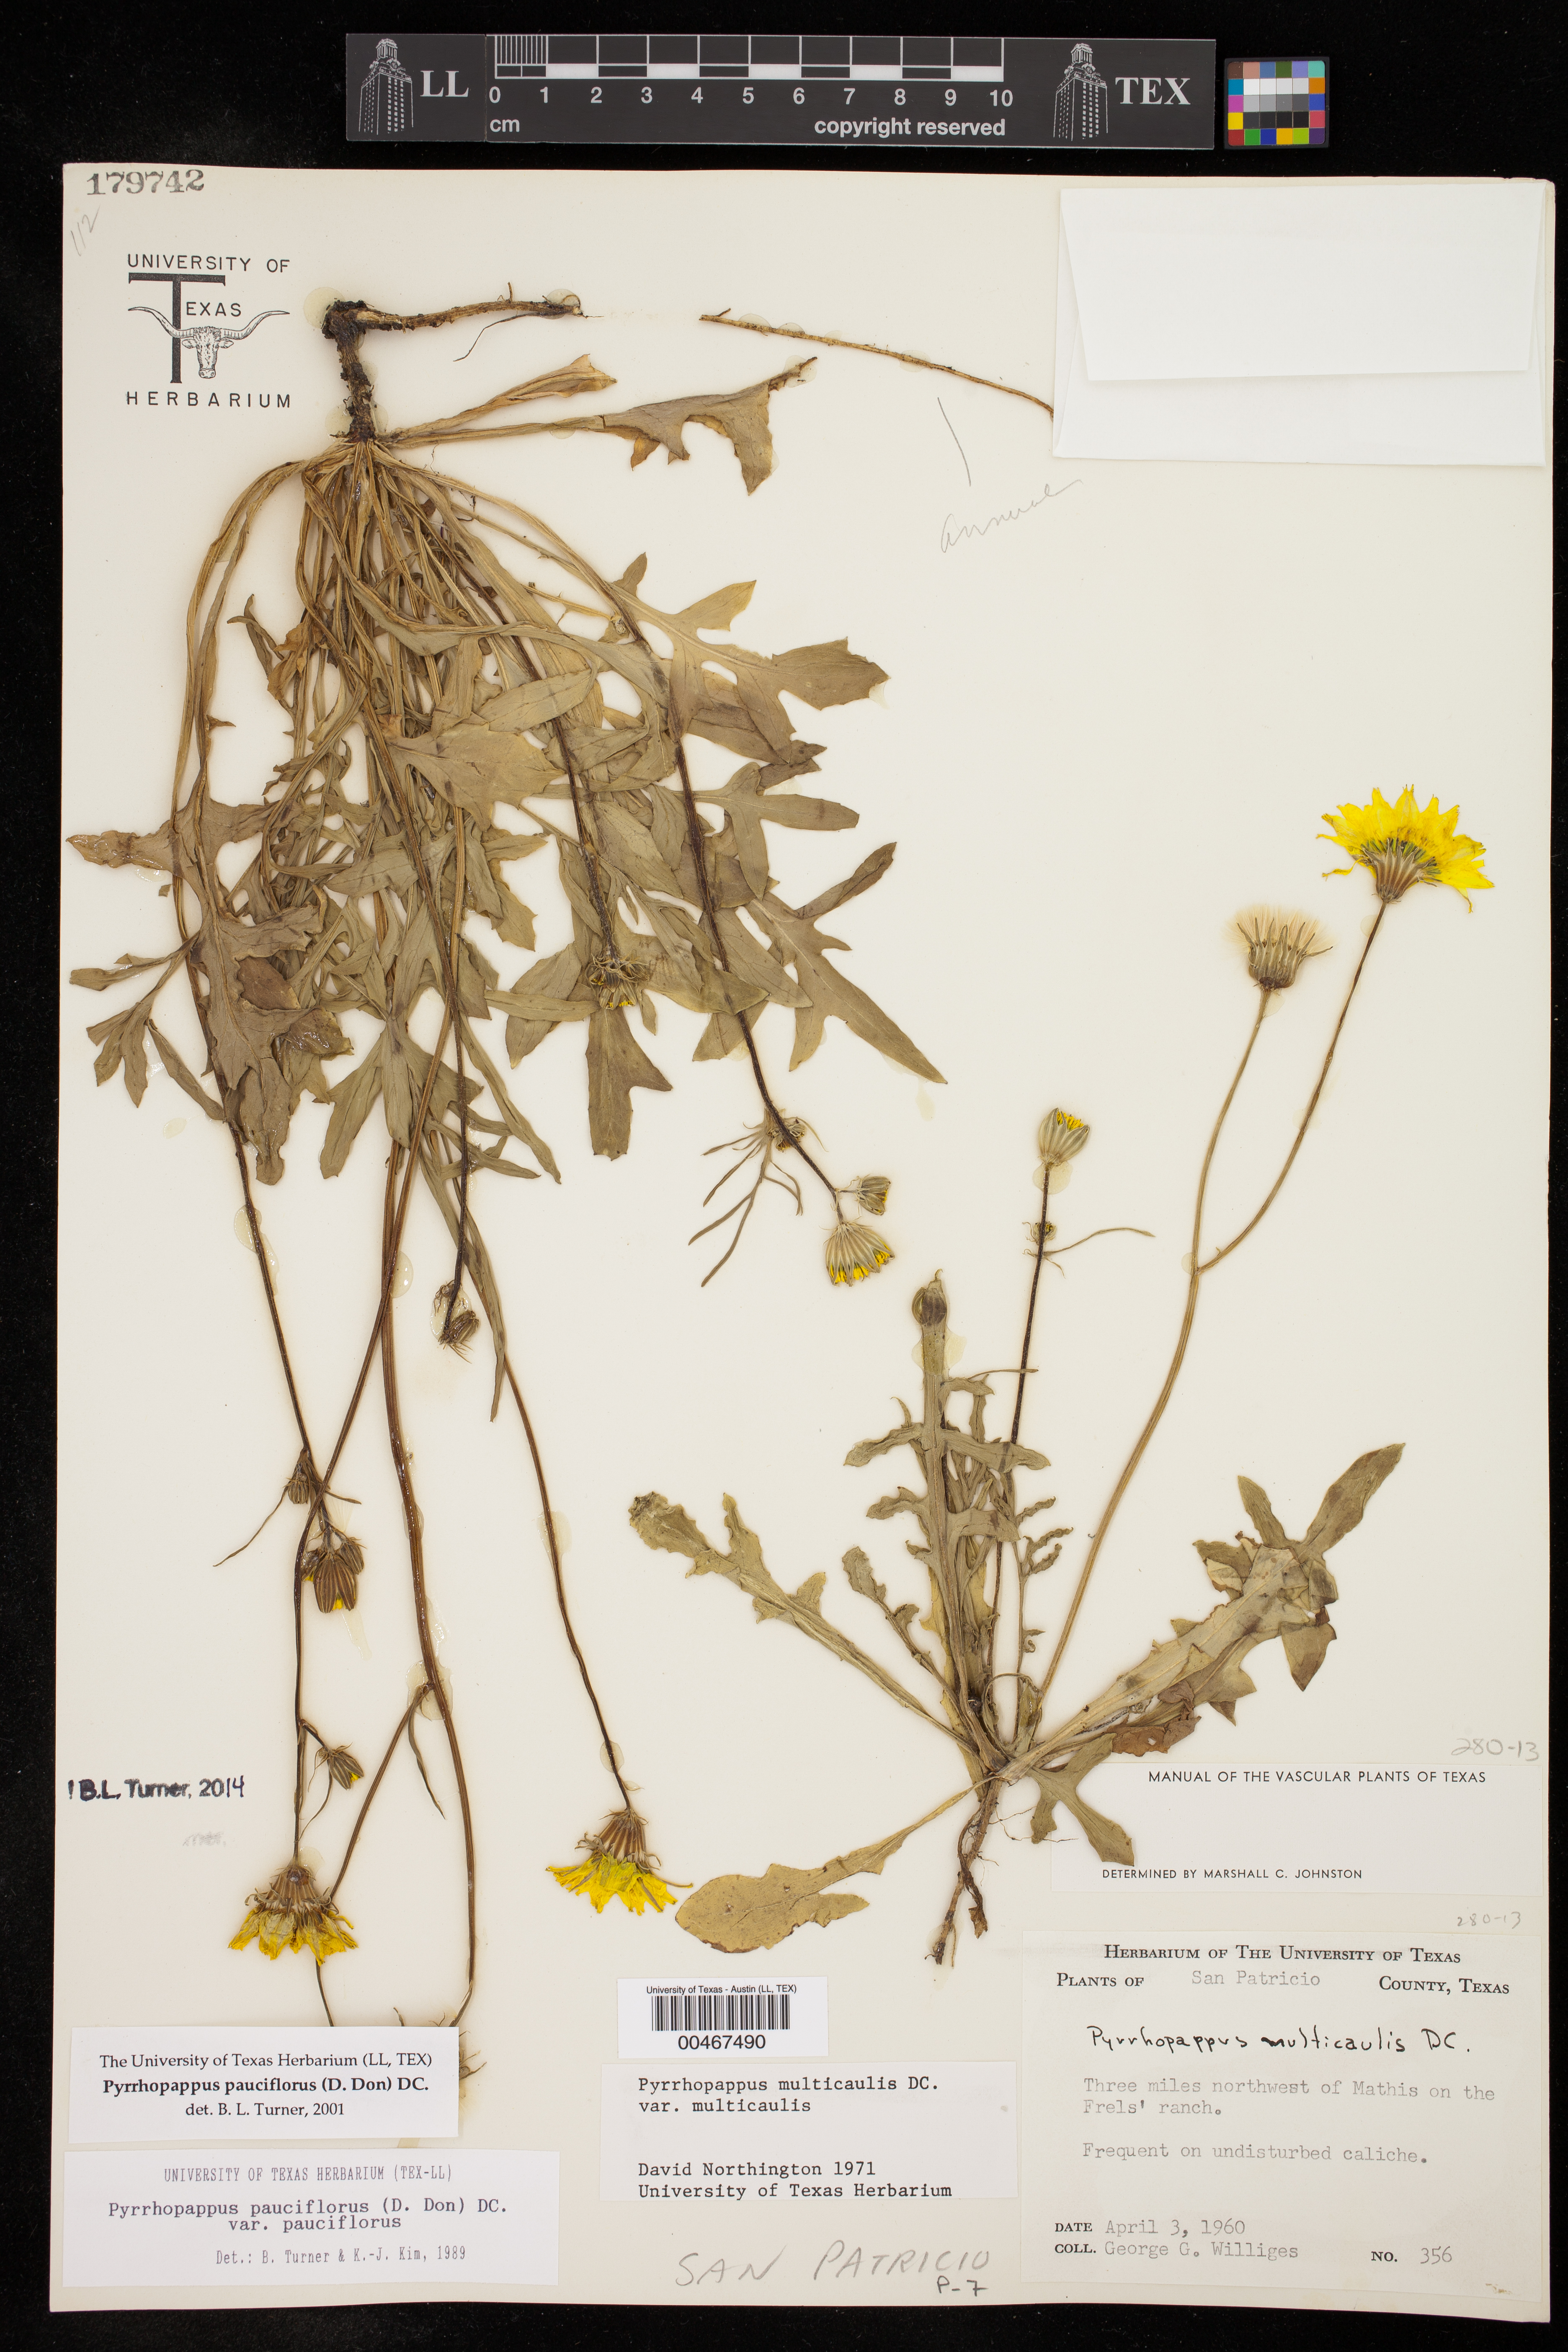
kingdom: Plantae
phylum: Tracheophyta
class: Magnoliopsida
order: Asterales
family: Asteraceae
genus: Pyrrhopappus
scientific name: Pyrrhopappus pauciflorus
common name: Texas false dandelion
